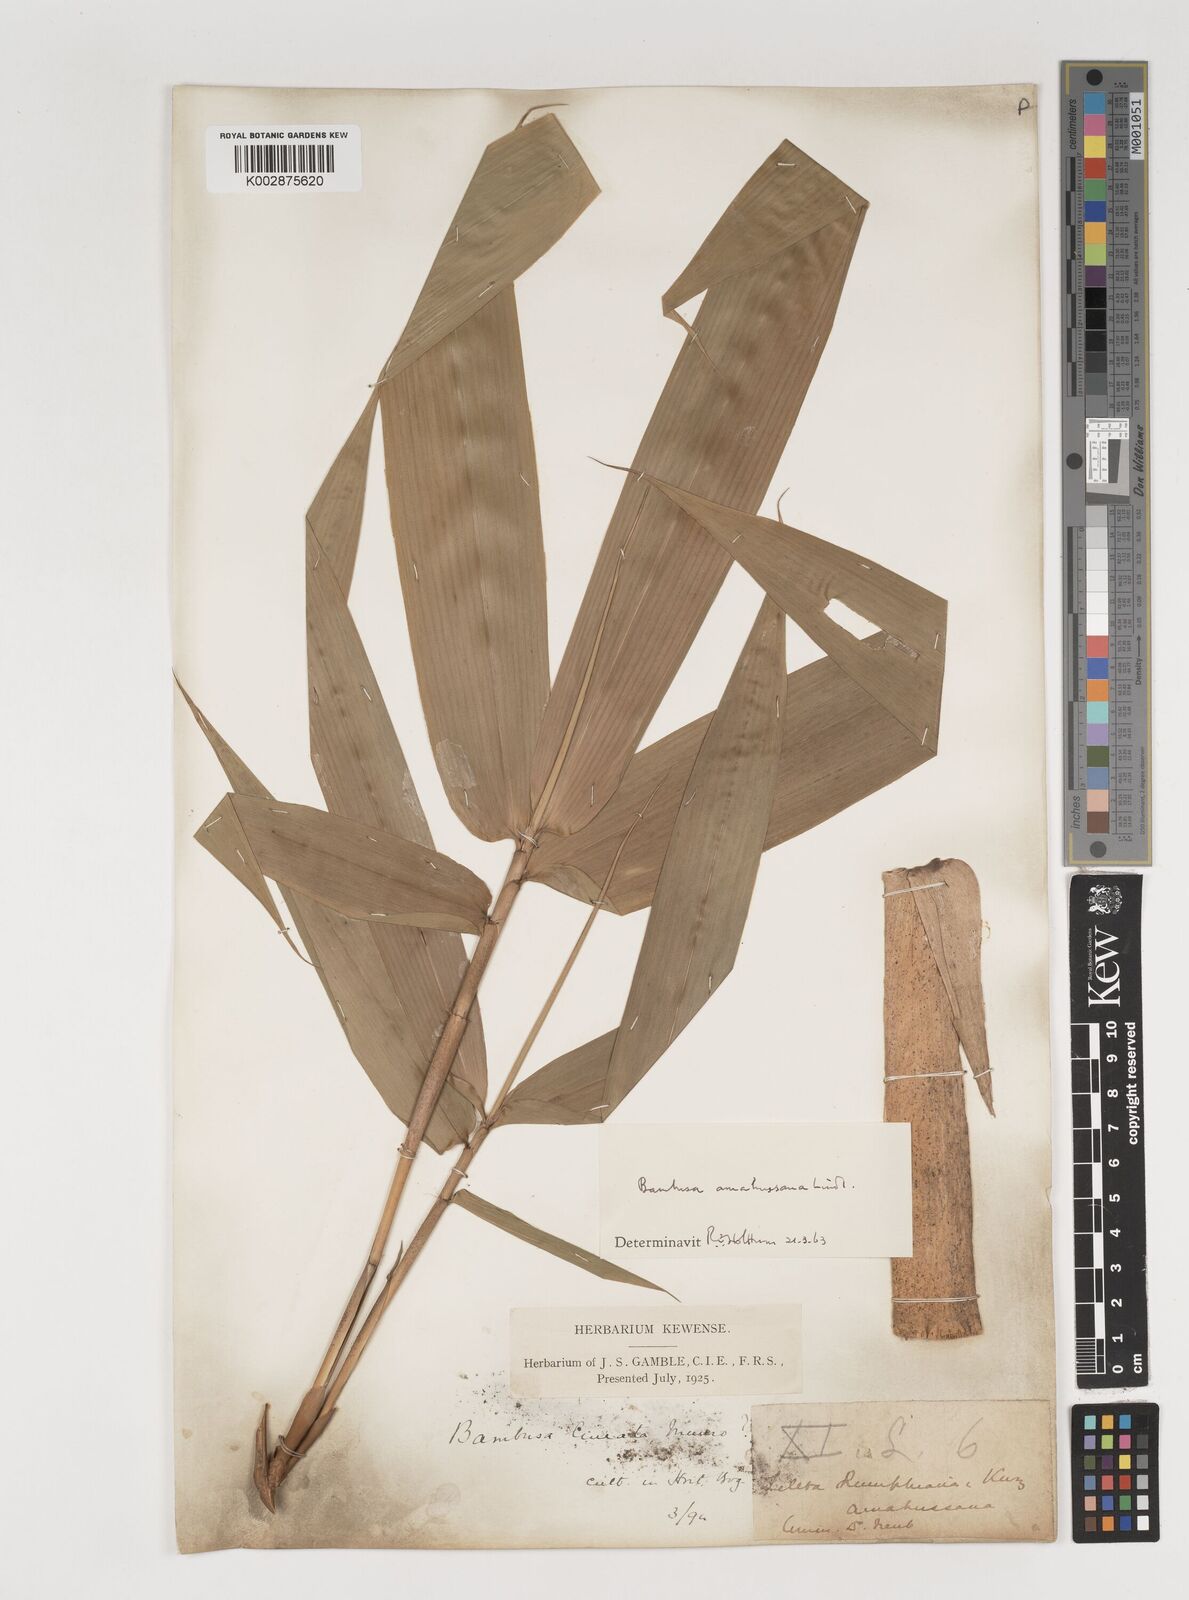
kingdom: Plantae
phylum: Tracheophyta
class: Liliopsida
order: Poales
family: Poaceae
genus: Neololeba
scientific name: Neololeba amahussana
